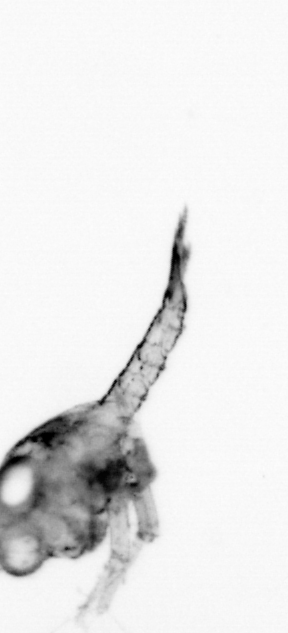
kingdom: Animalia
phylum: Arthropoda
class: Malacostraca
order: Decapoda
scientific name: Decapoda
